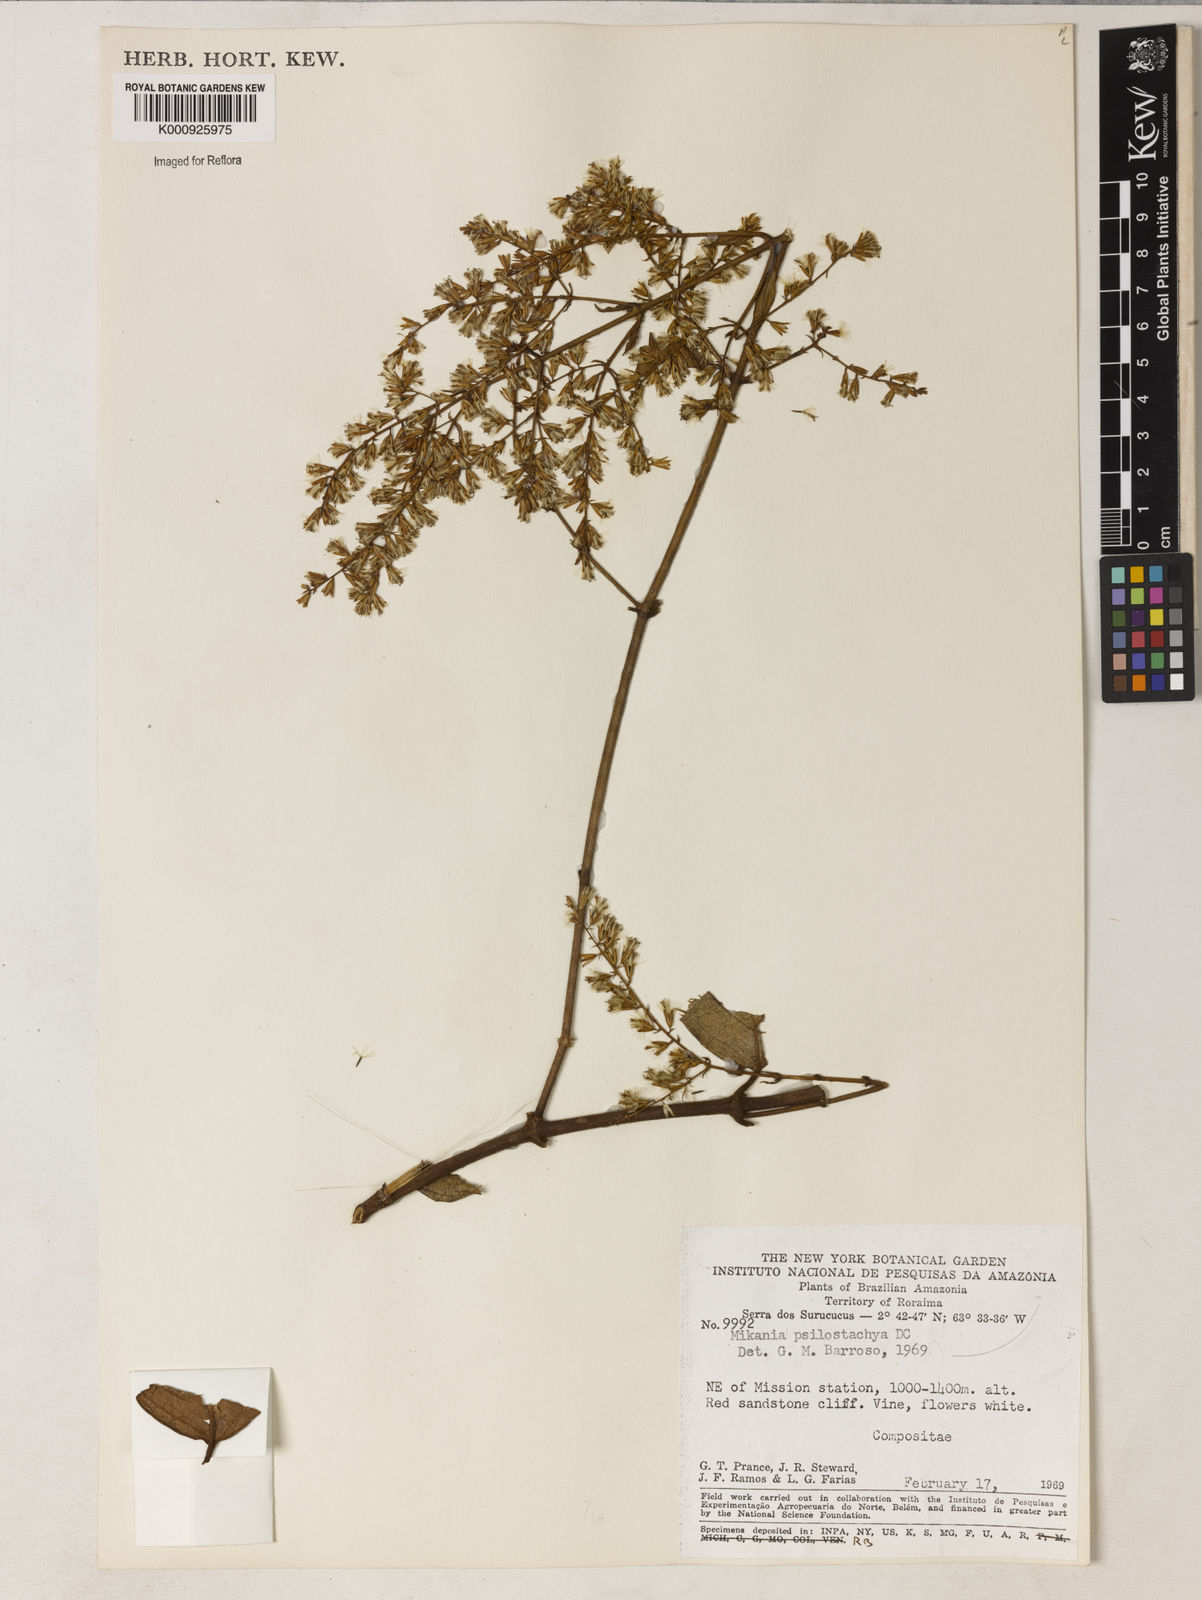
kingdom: Plantae
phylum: Tracheophyta
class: Magnoliopsida
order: Asterales
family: Asteraceae
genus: Mikania
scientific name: Mikania psilostachya
